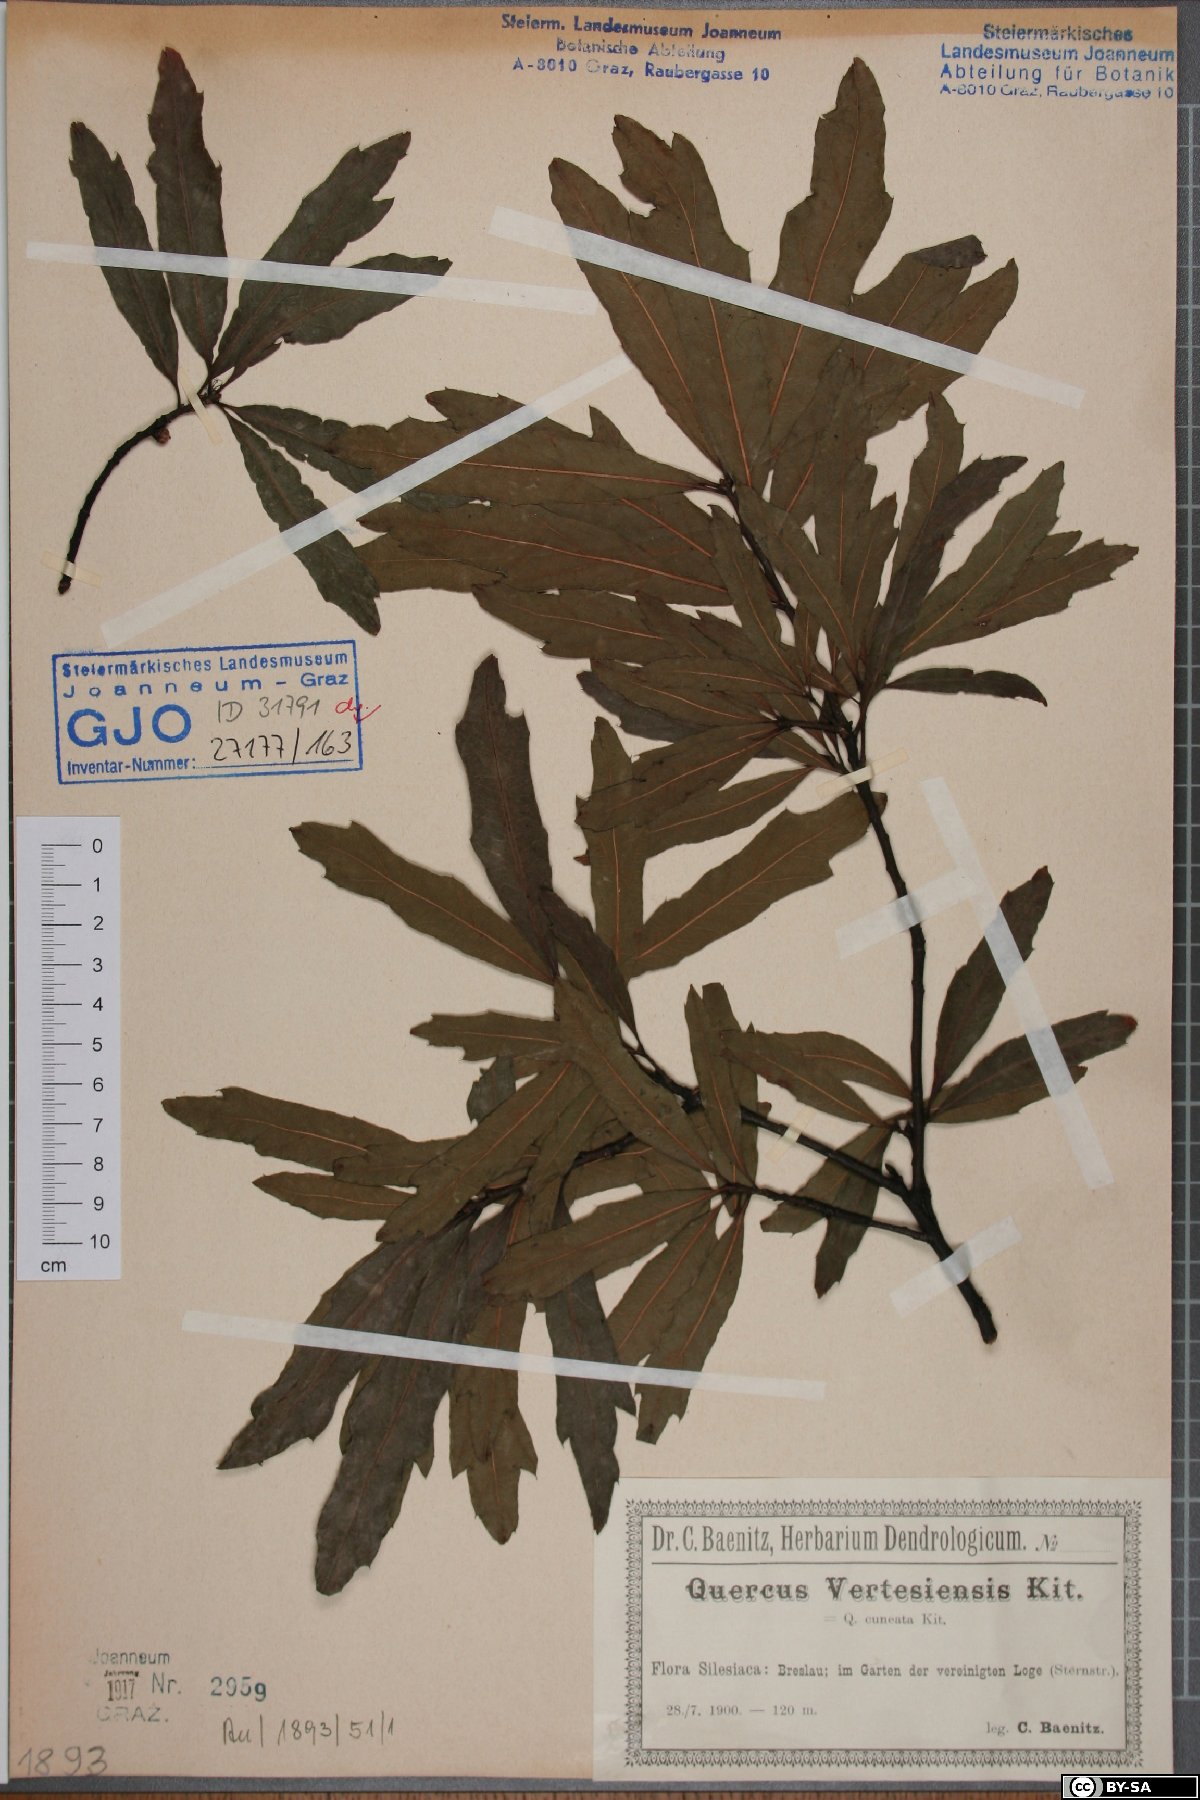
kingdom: Plantae
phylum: Tracheophyta
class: Magnoliopsida
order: Fagales
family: Fagaceae
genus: Quercus
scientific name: Quercus vertesiensis
